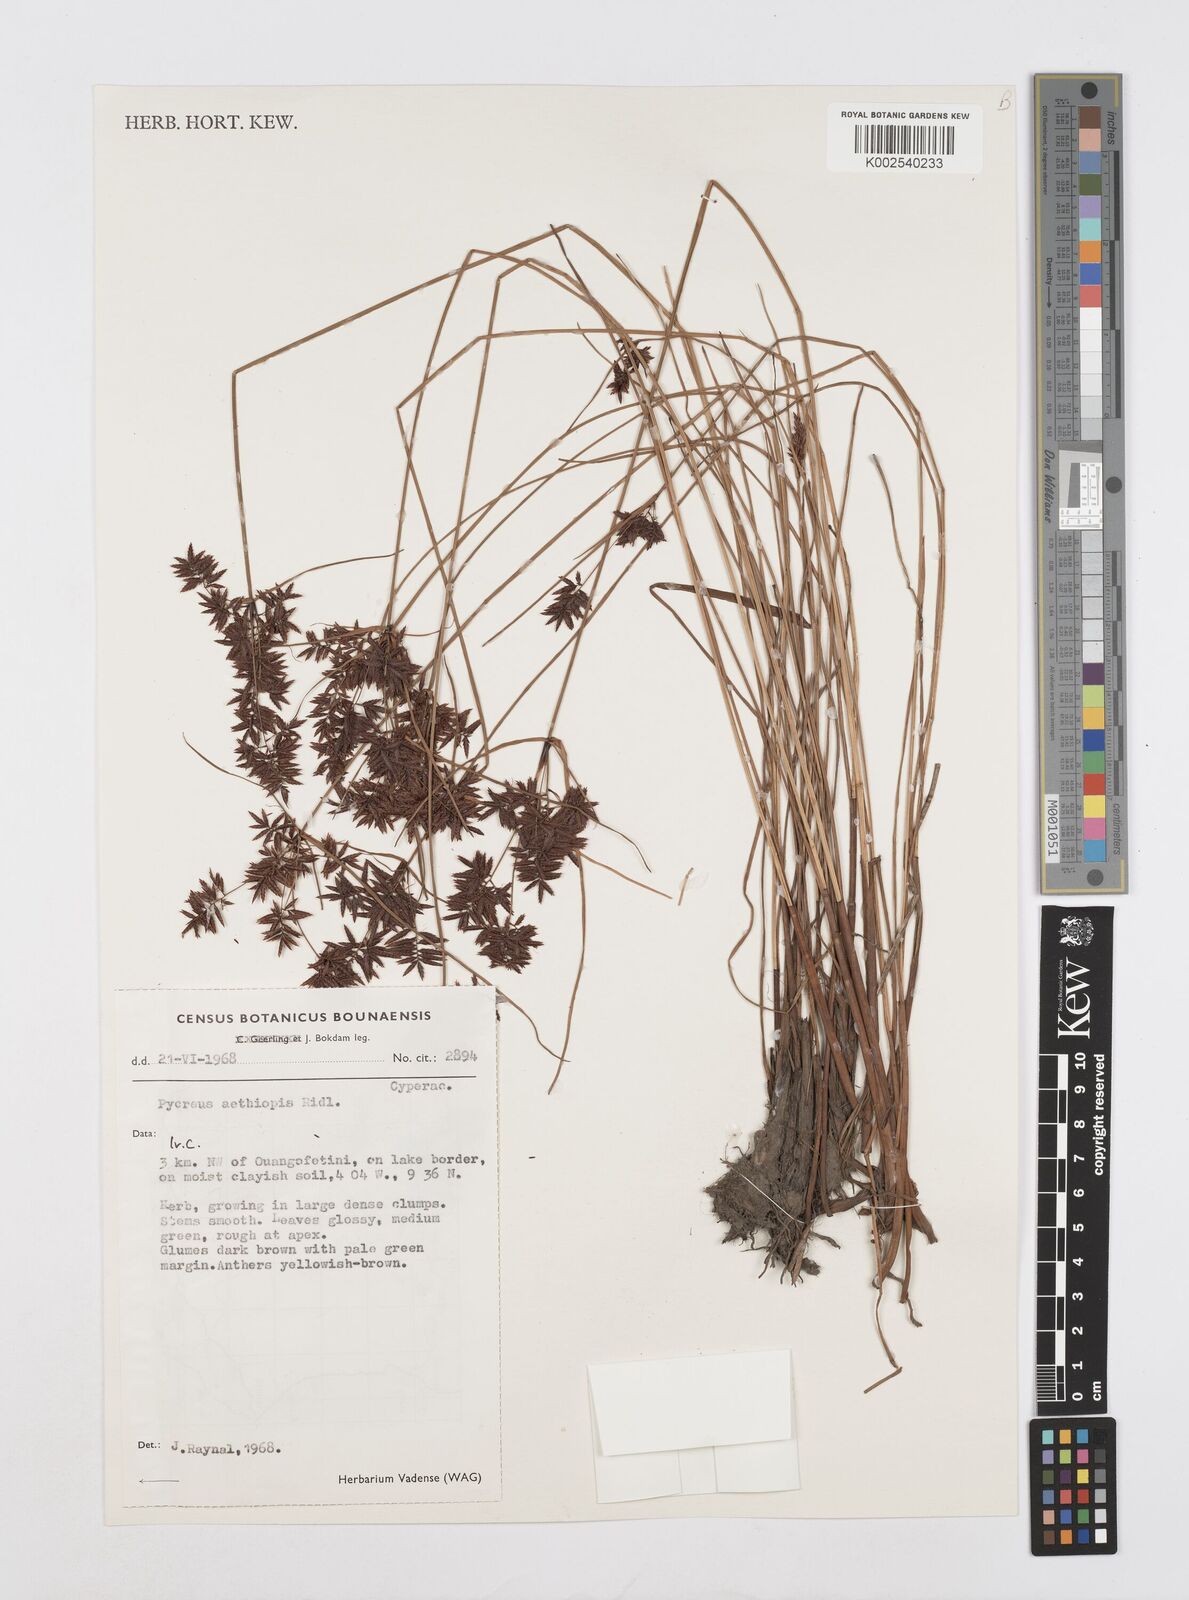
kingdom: Plantae
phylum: Tracheophyta
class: Liliopsida
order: Poales
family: Cyperaceae
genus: Cyperus
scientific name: Cyperus aethiops
